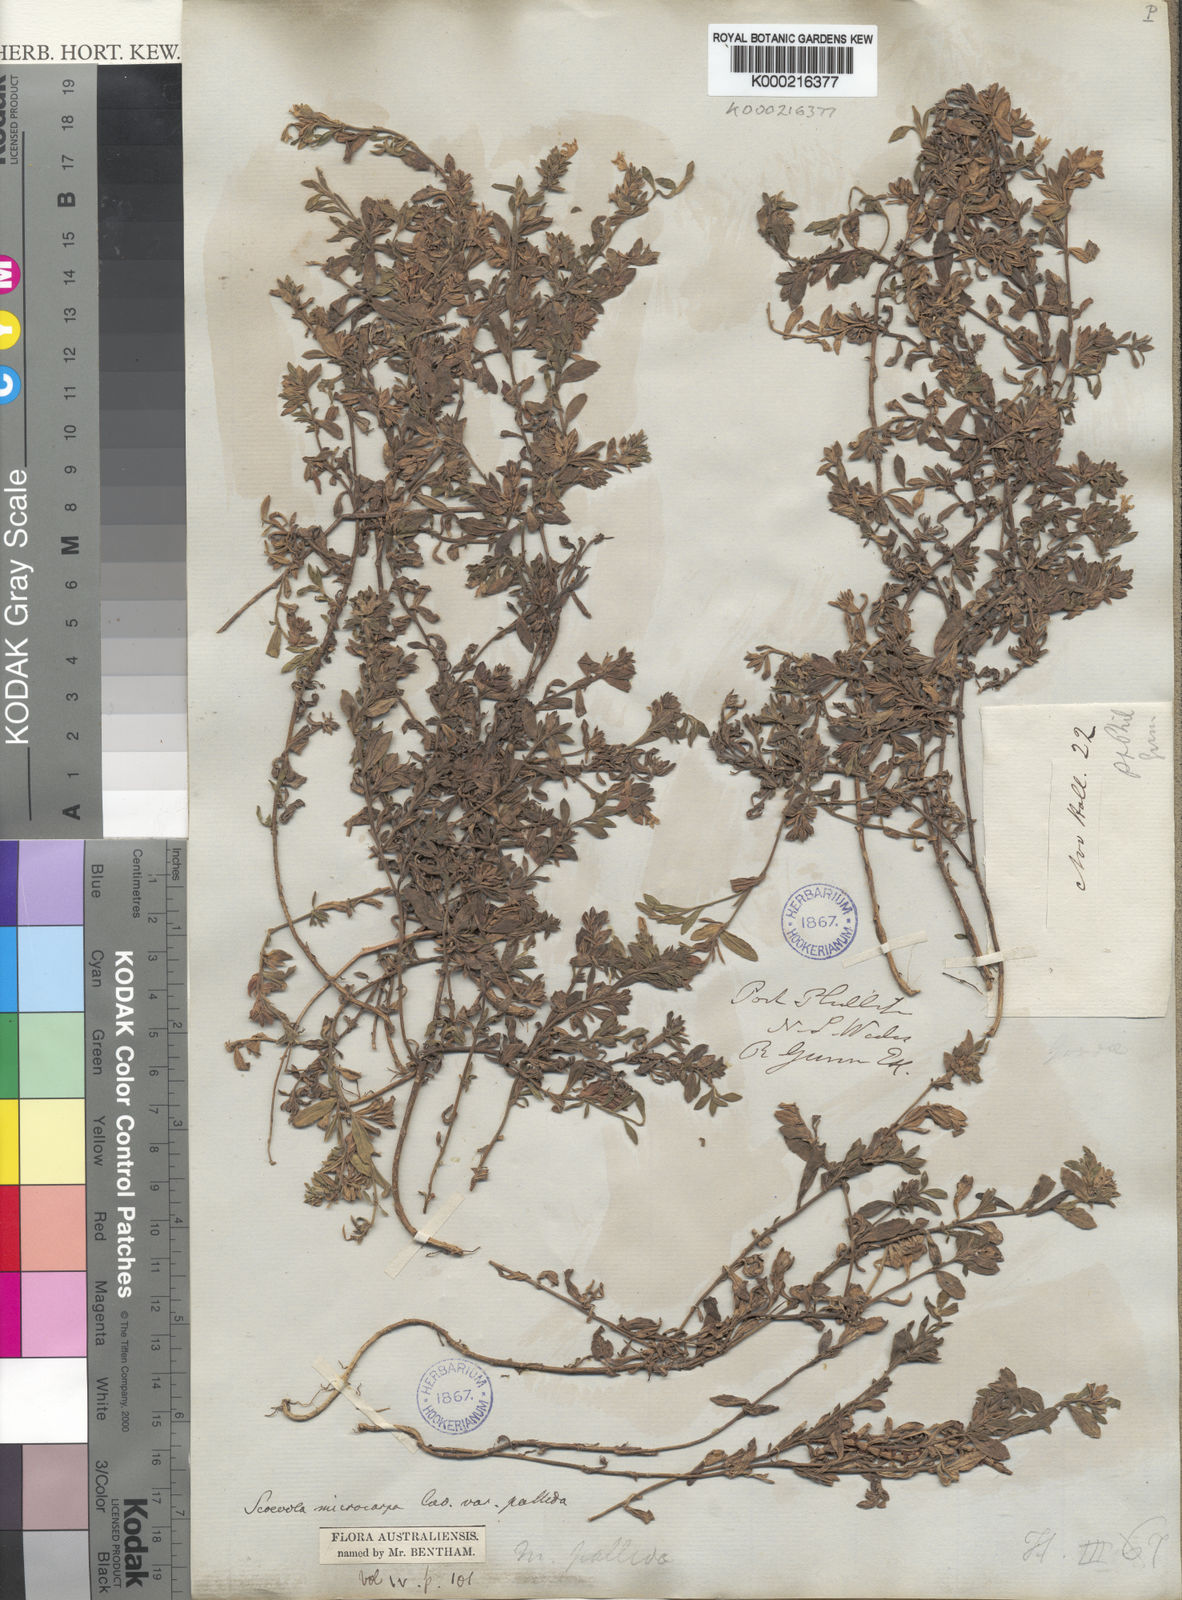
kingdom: Plantae
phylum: Tracheophyta
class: Magnoliopsida
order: Asterales
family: Goodeniaceae
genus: Scaevola
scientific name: Scaevola albida
